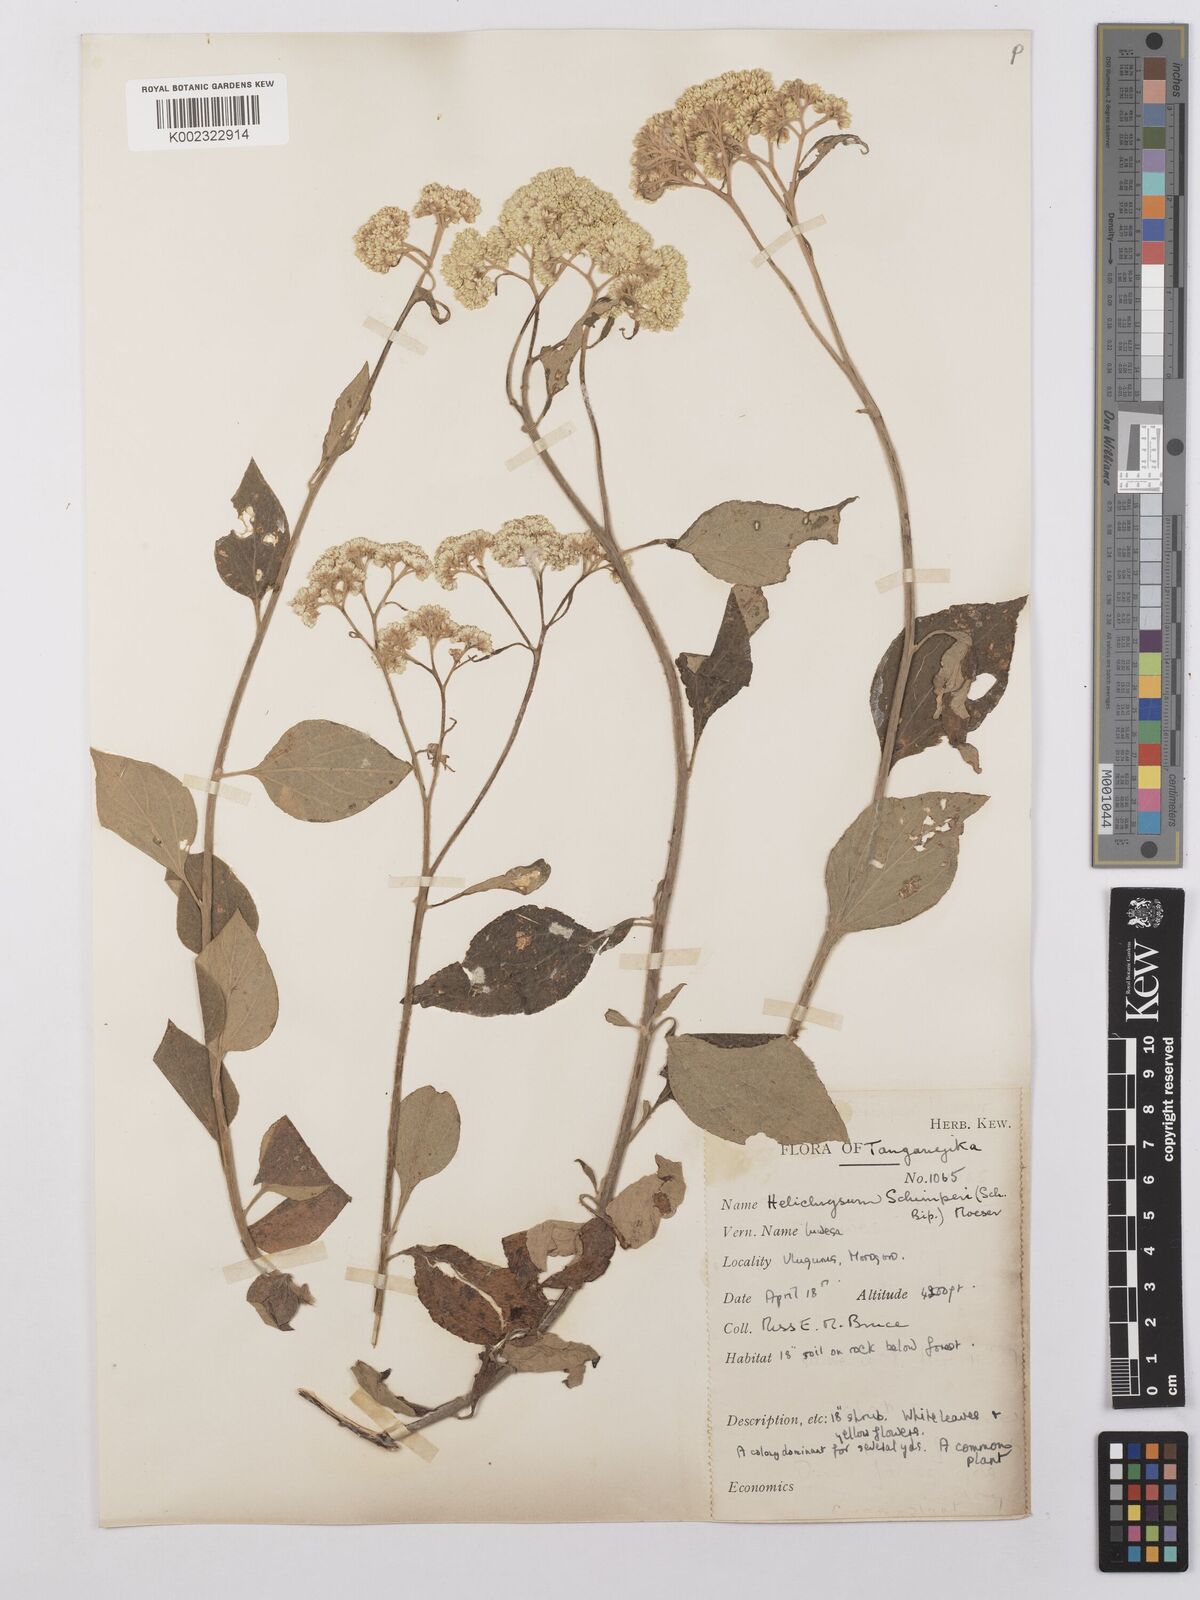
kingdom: Plantae
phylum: Tracheophyta
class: Magnoliopsida
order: Asterales
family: Asteraceae
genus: Helichrysum
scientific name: Helichrysum schimperi
